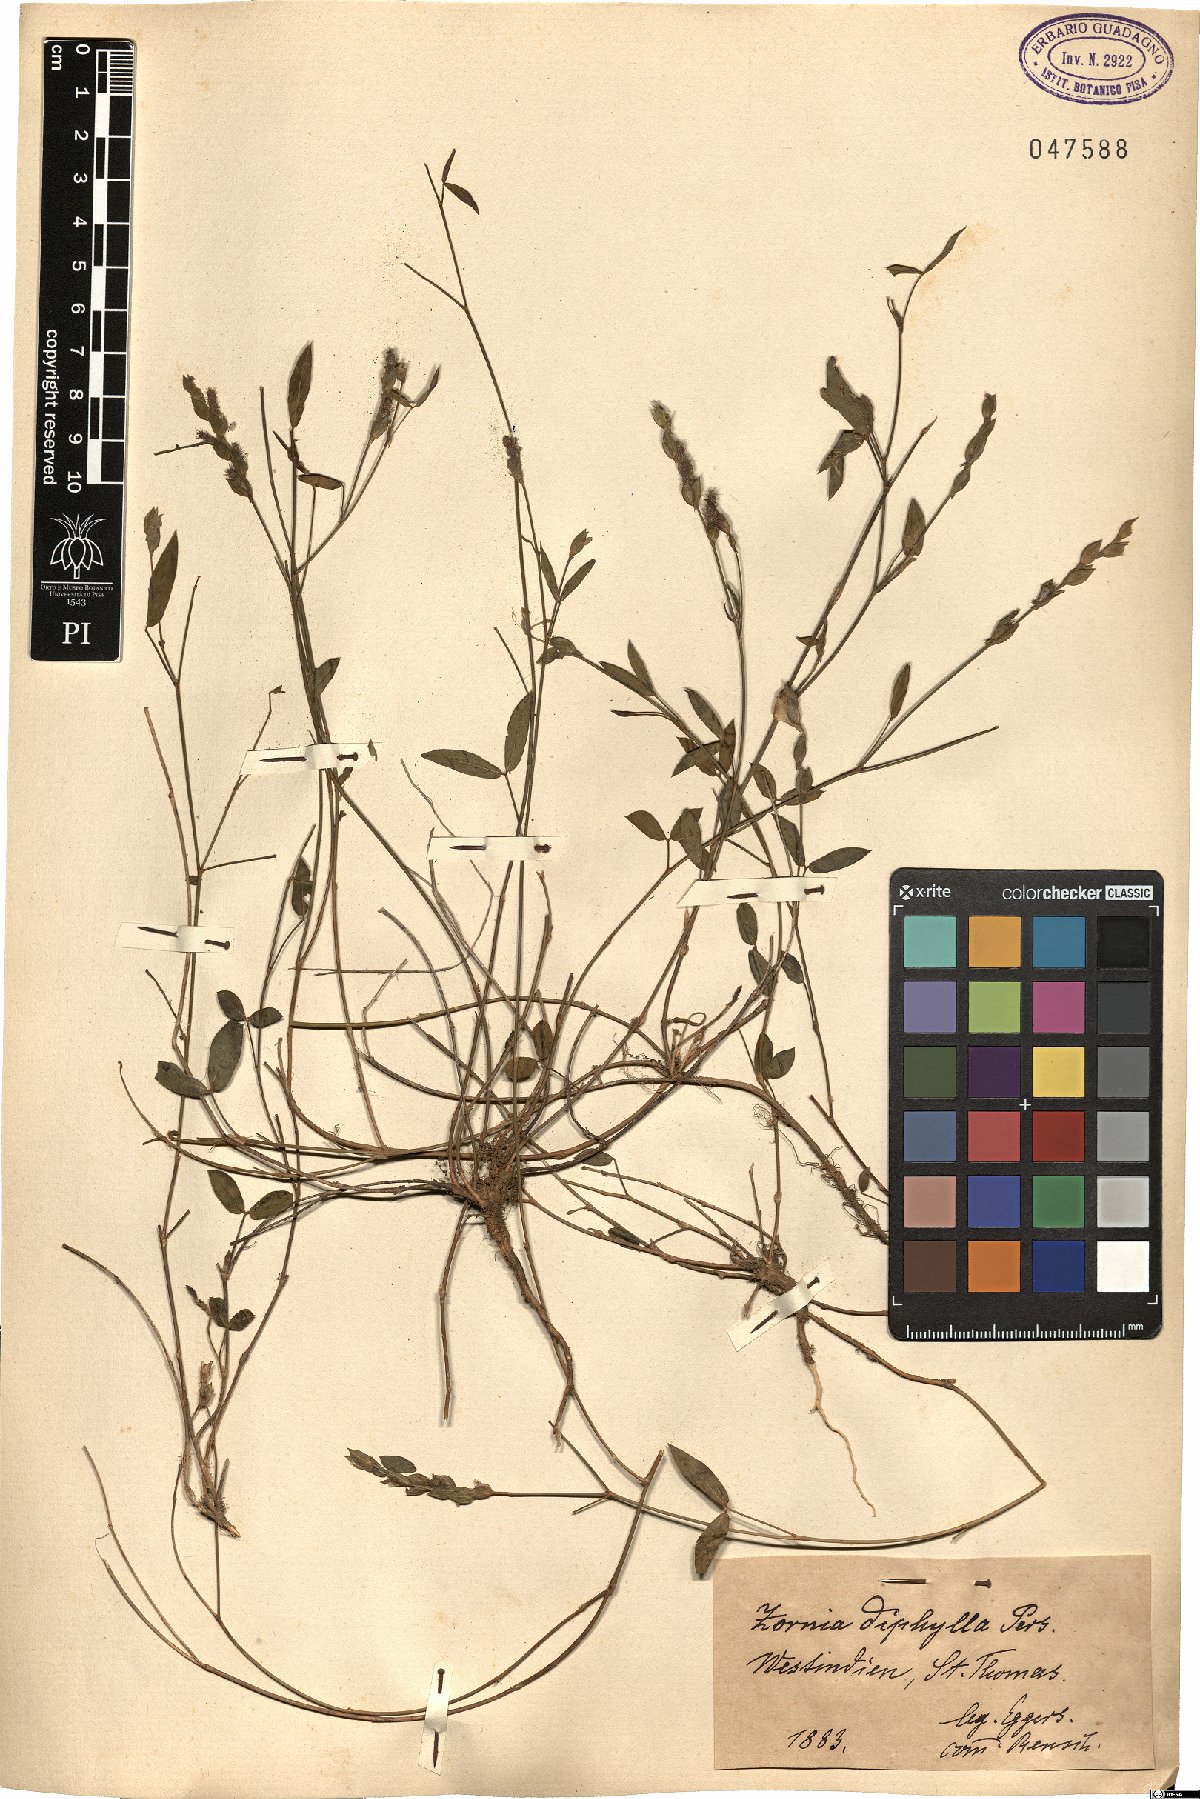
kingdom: Plantae
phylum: Tracheophyta
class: Magnoliopsida
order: Fabales
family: Fabaceae
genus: Zornia
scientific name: Zornia diphylla
